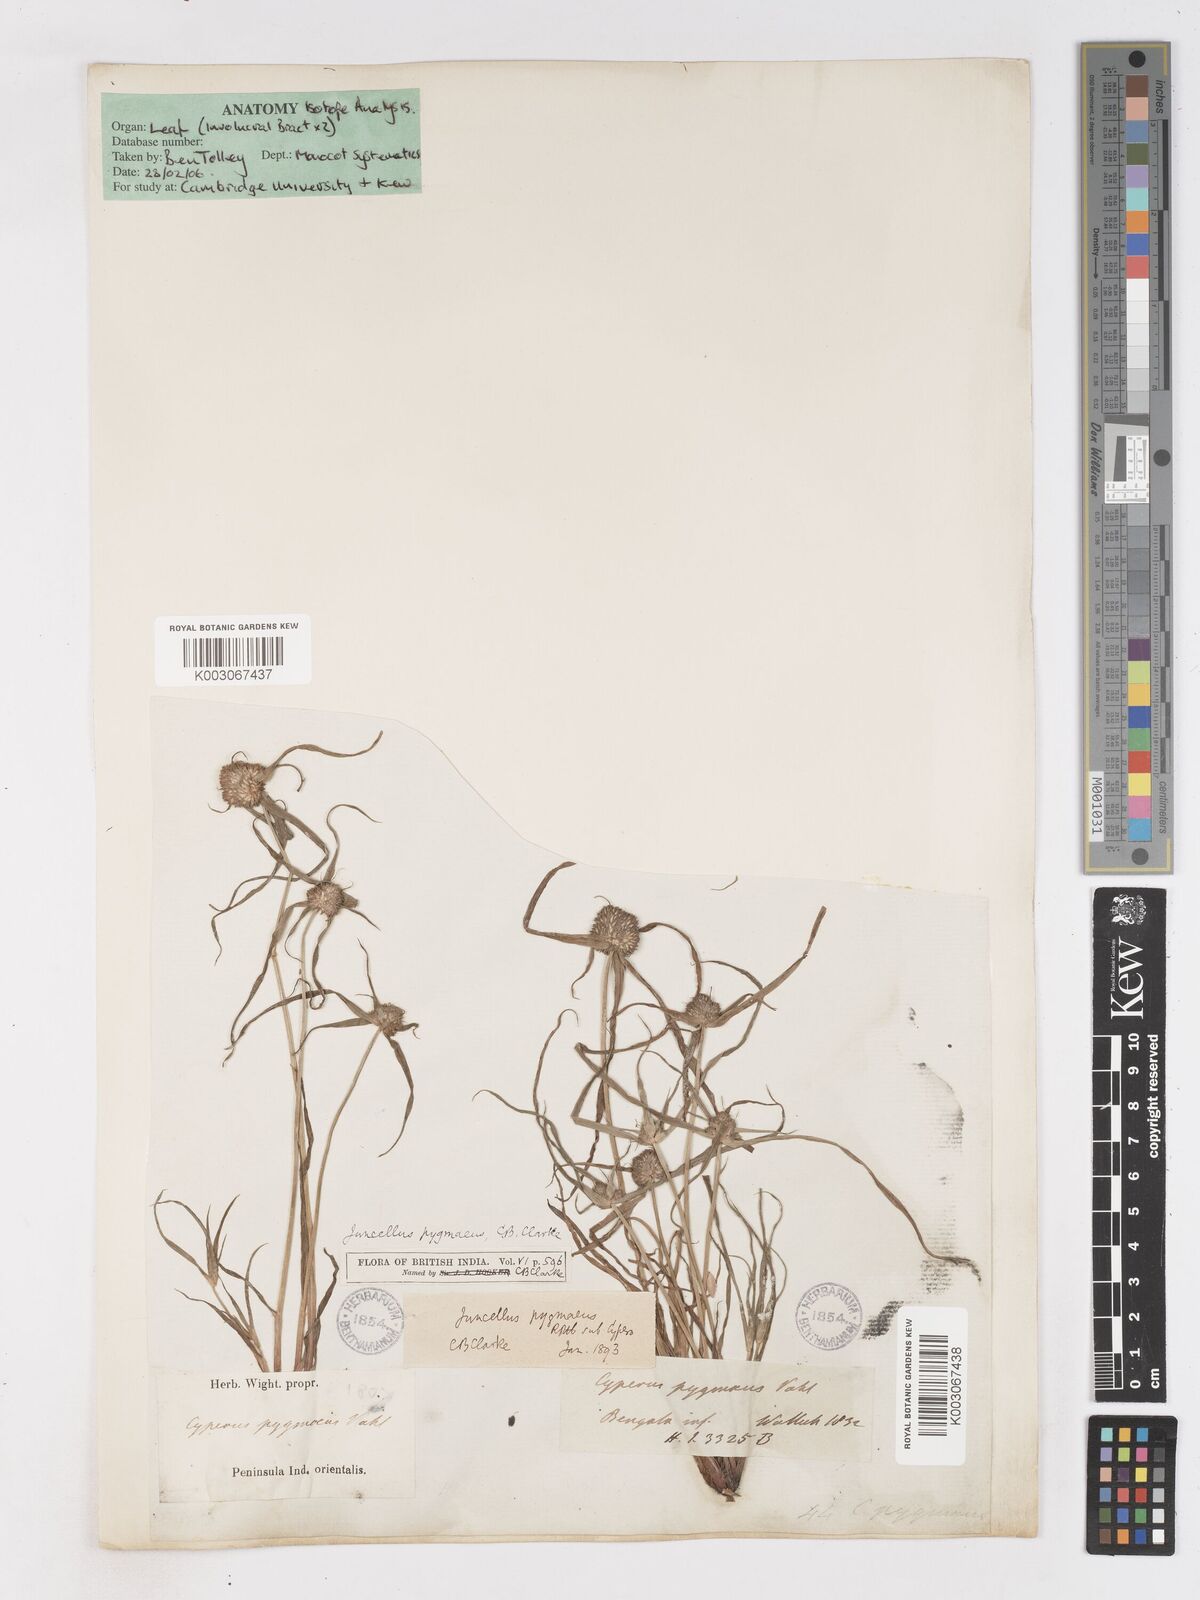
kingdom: Plantae
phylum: Tracheophyta
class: Liliopsida
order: Poales
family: Cyperaceae
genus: Cyperus
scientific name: Cyperus michelianus
